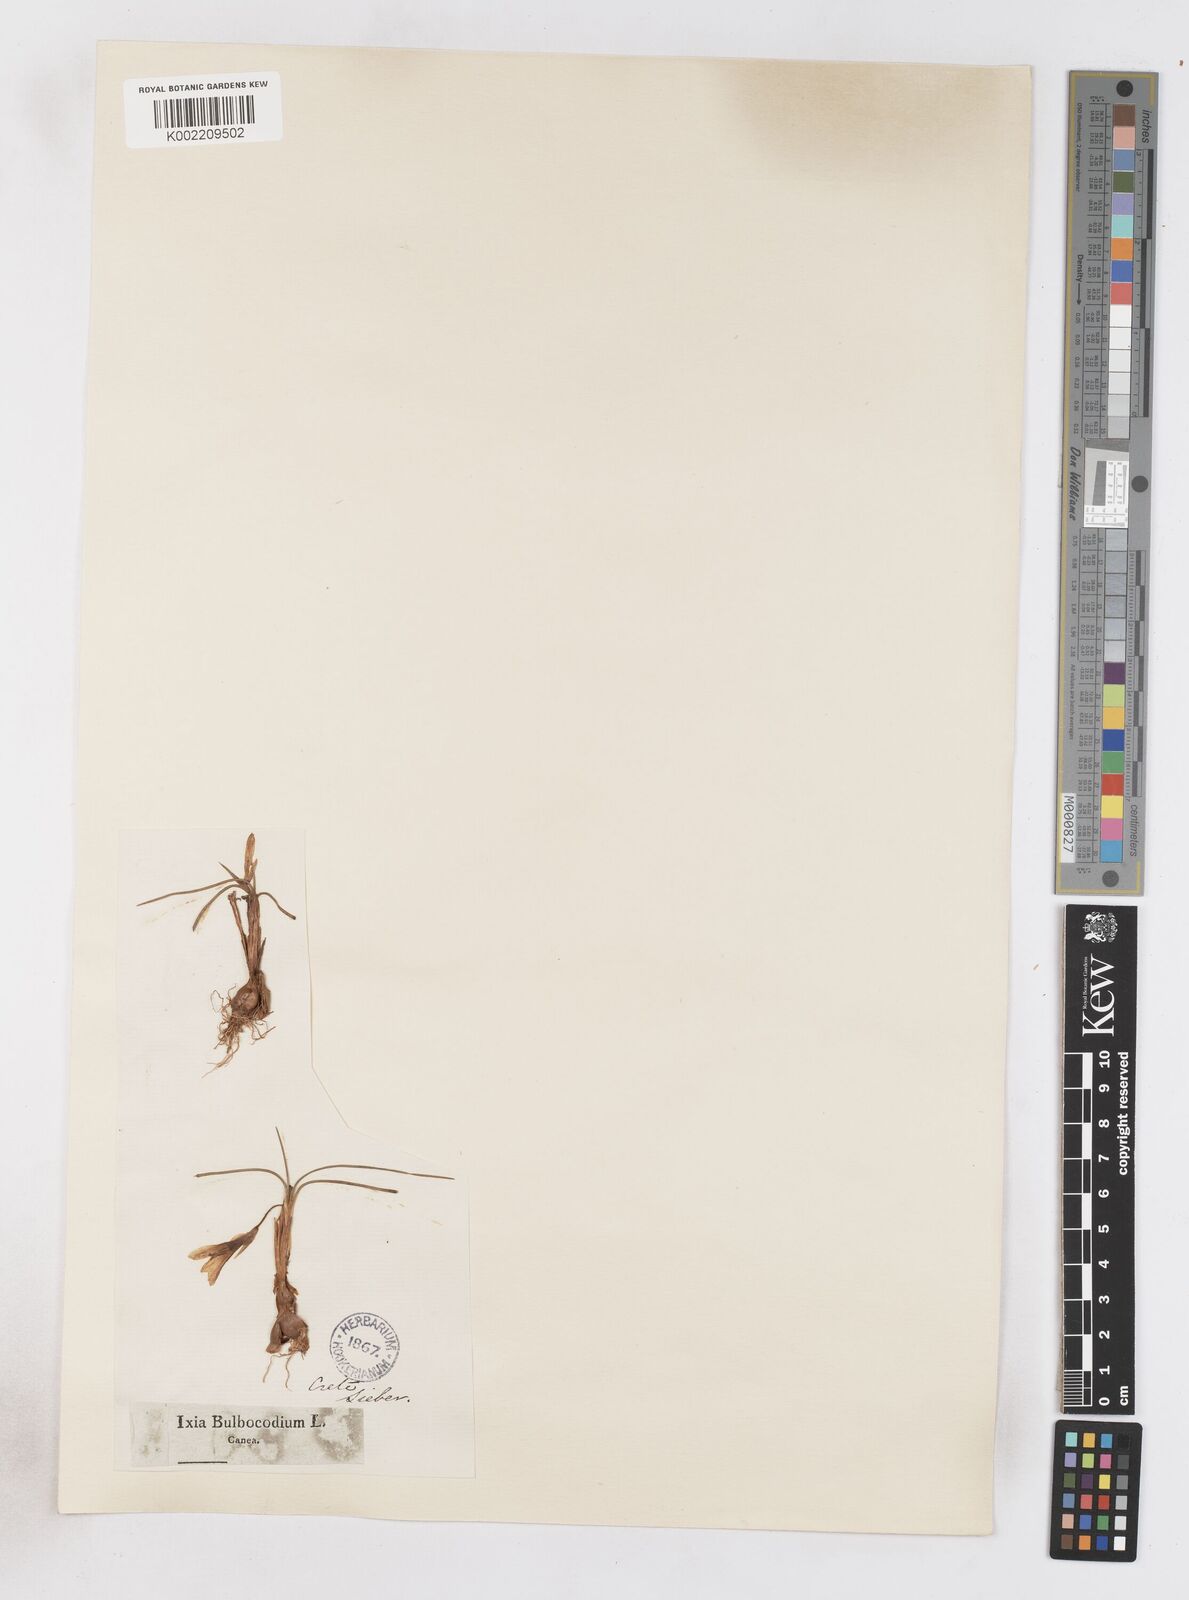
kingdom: Plantae
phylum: Tracheophyta
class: Liliopsida
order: Asparagales
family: Iridaceae
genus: Romulea
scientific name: Romulea bulbocodium
